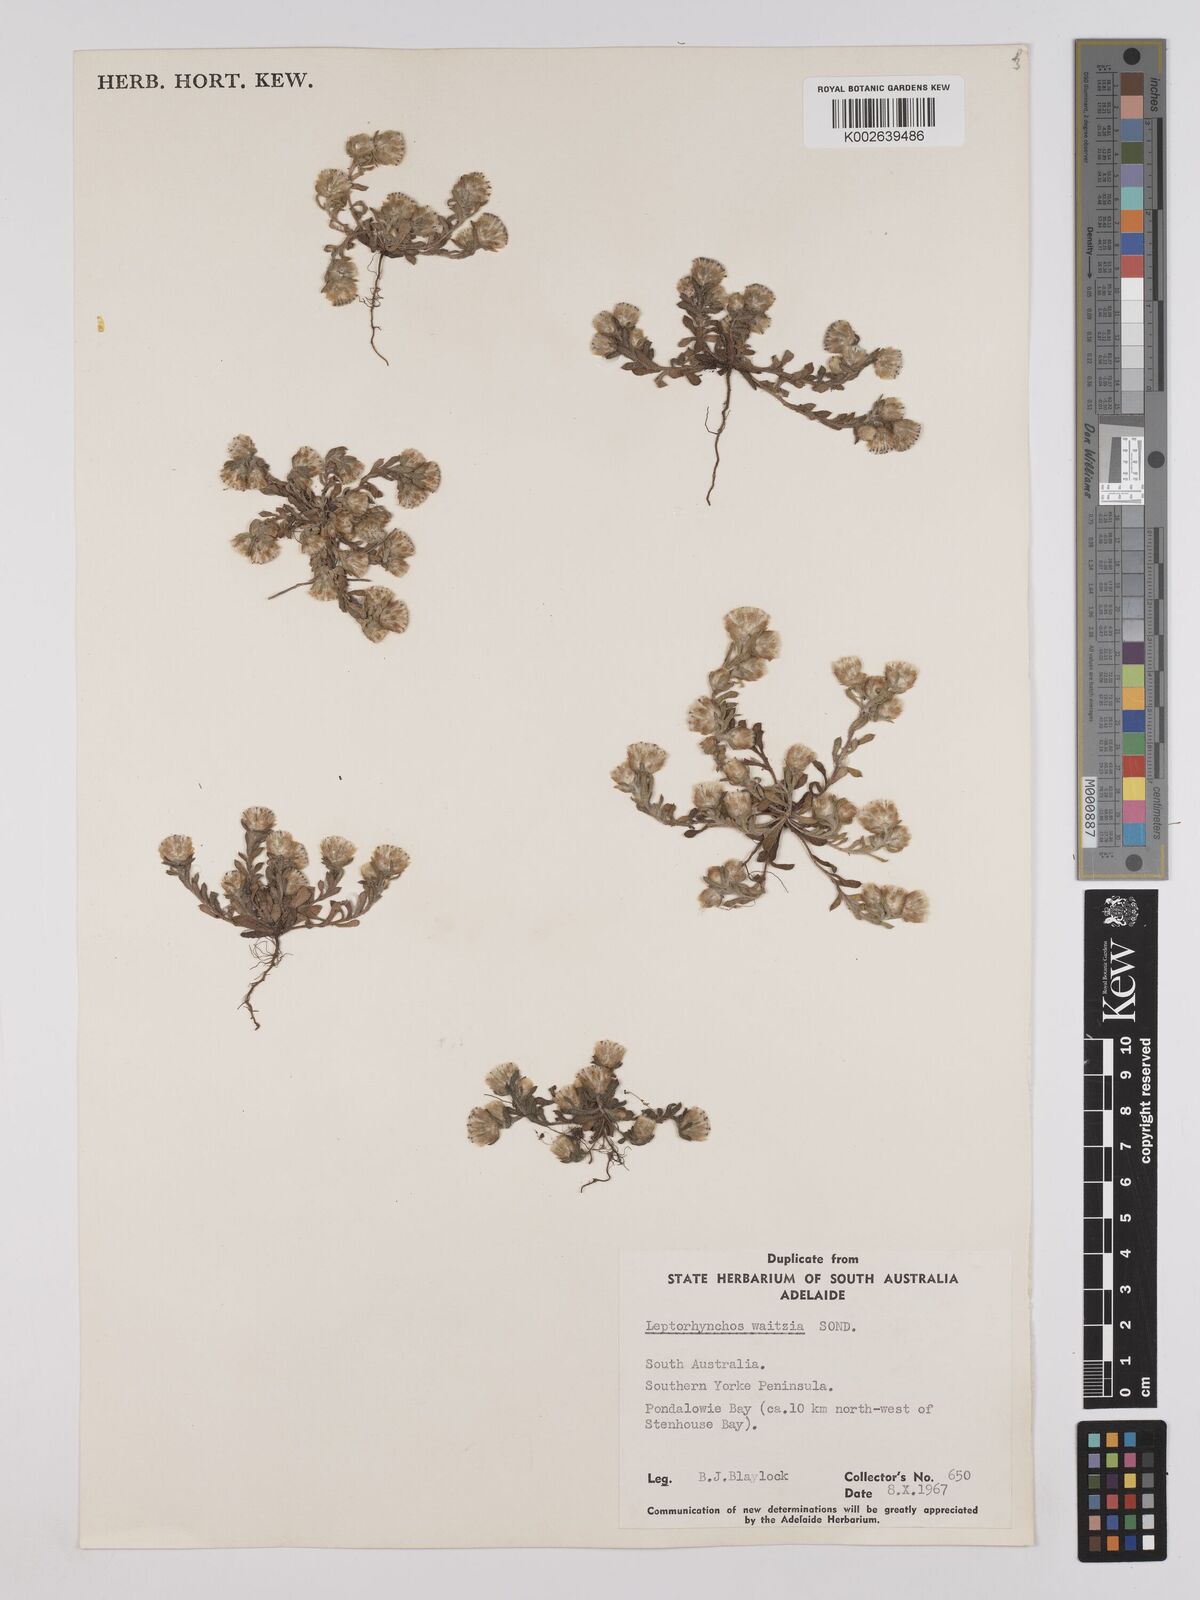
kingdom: Plantae
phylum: Tracheophyta
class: Magnoliopsida
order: Asterales
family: Asteraceae
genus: Leptorhynchos
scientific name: Leptorhynchos waitzia
